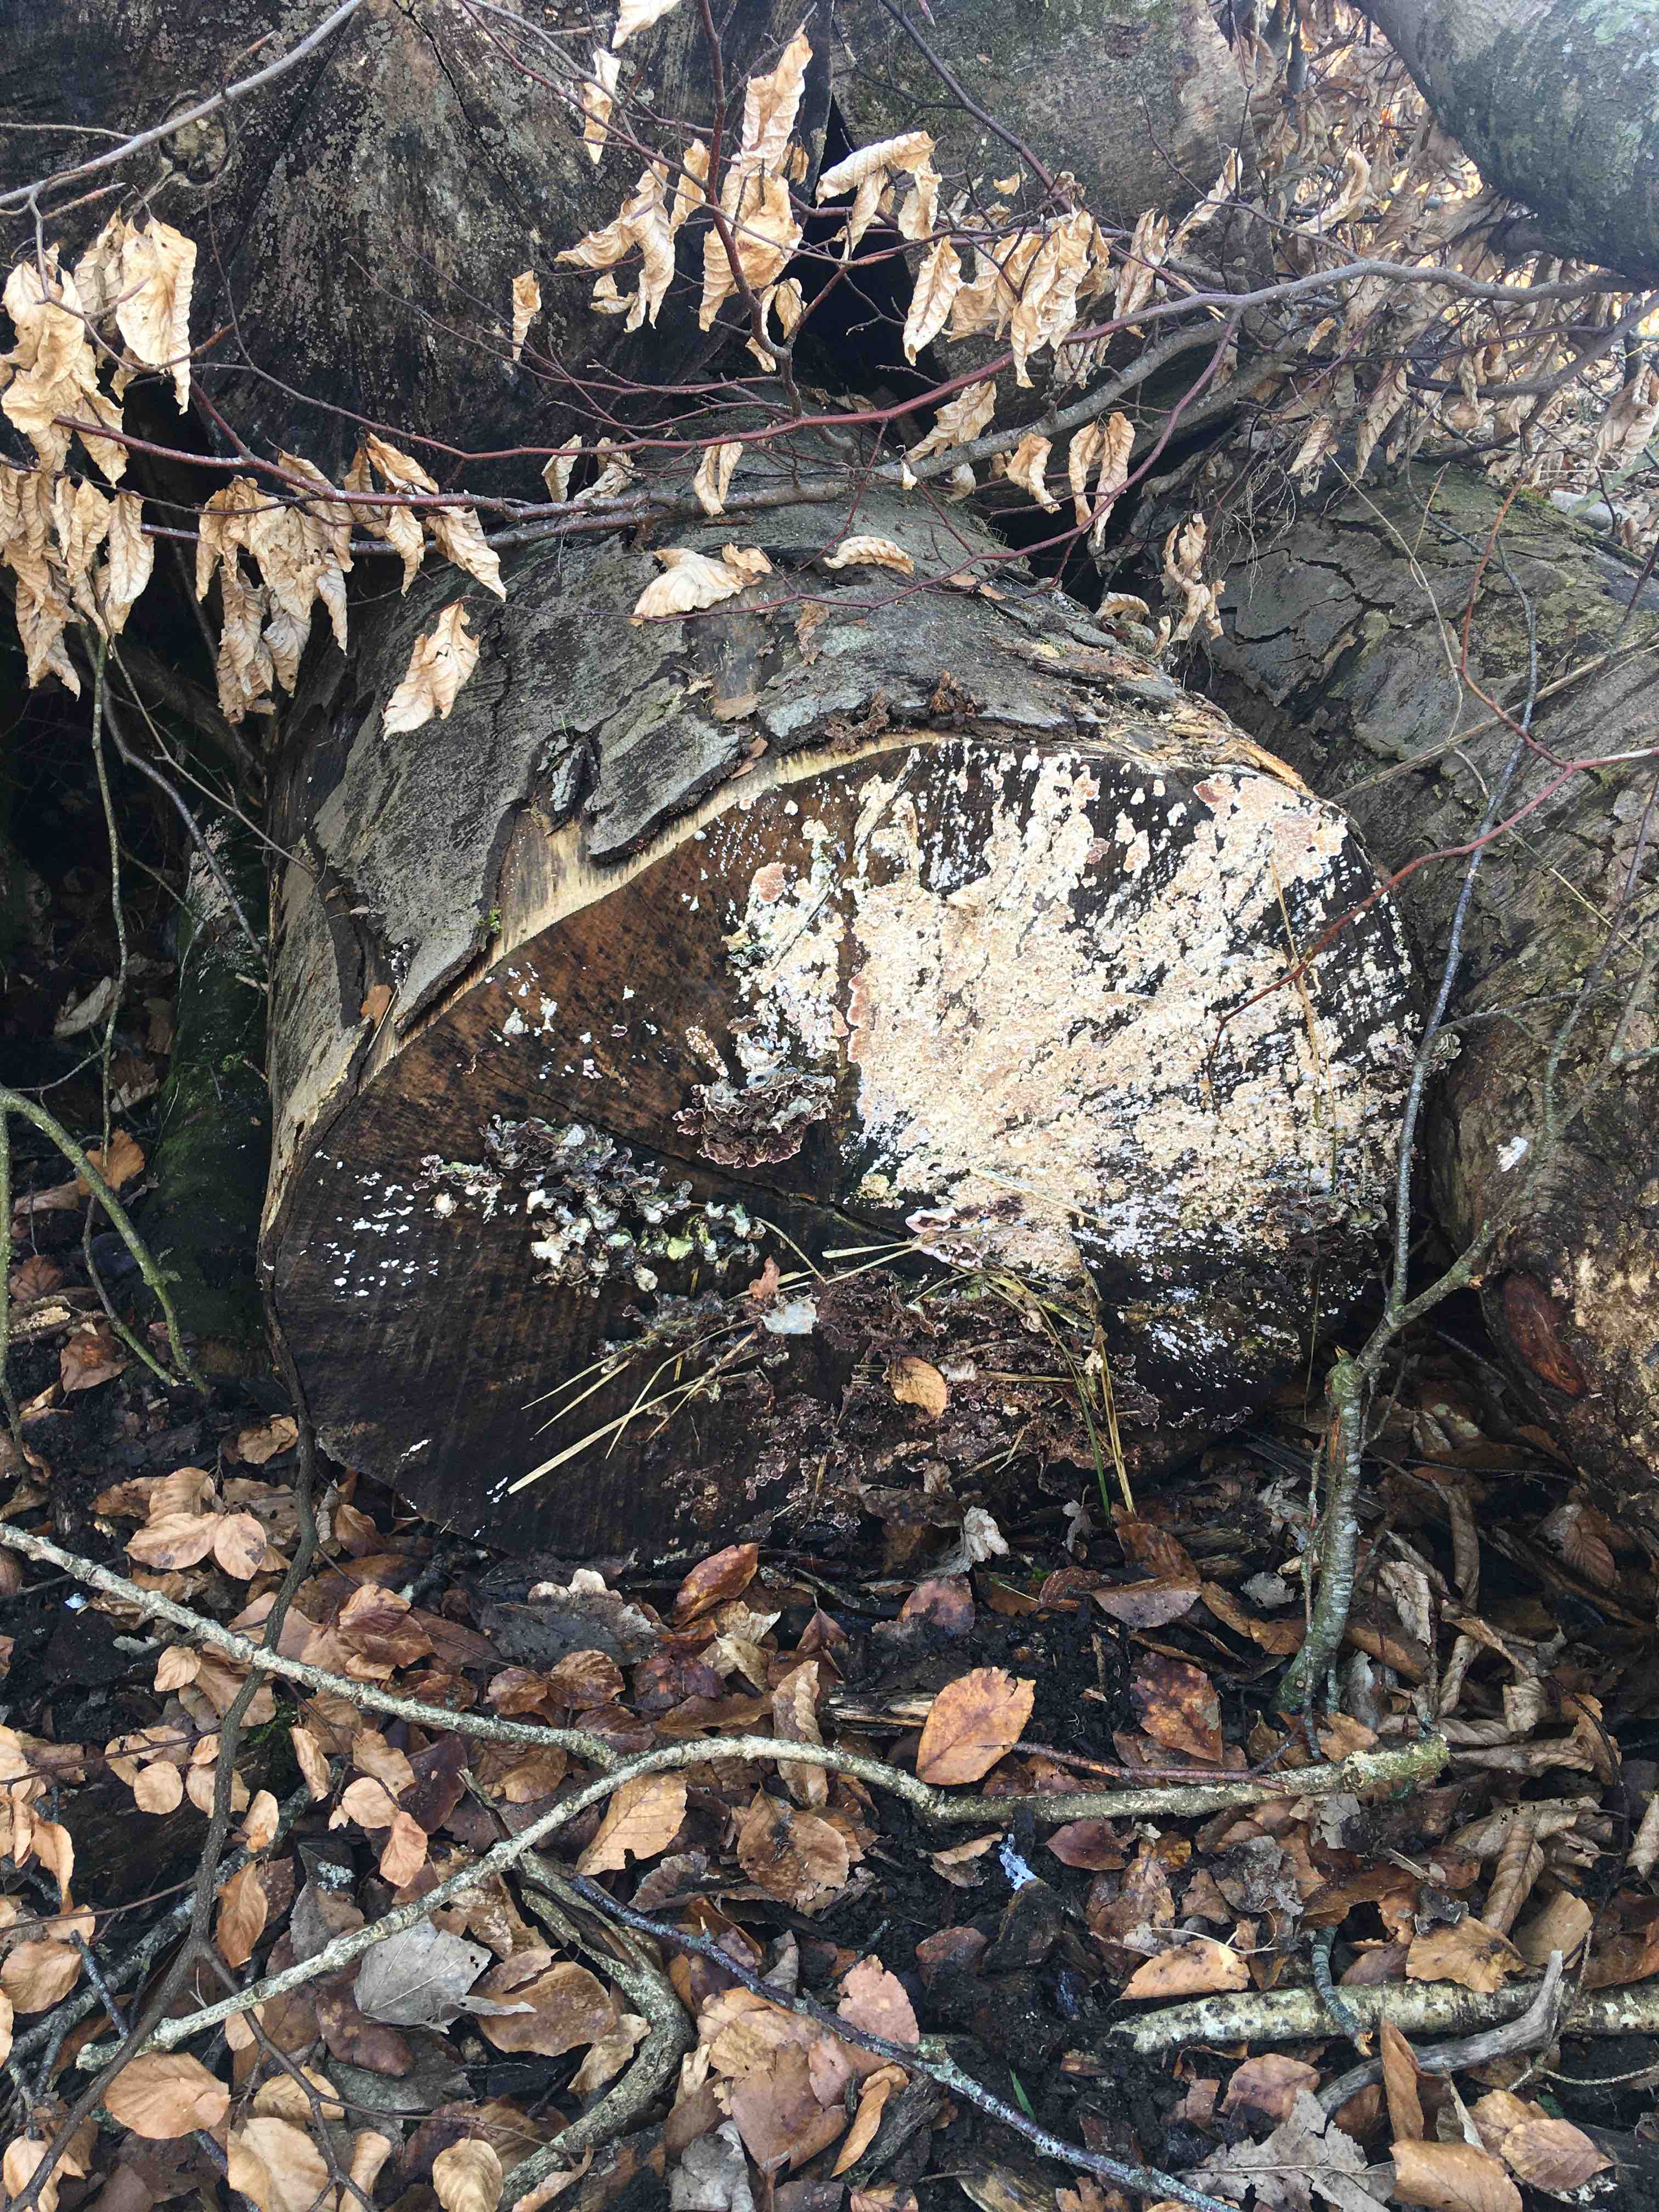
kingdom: Fungi
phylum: Basidiomycota
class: Agaricomycetes
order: Agaricales
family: Physalacriaceae
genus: Cylindrobasidium
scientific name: Cylindrobasidium evolvens
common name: sprækkehinde
